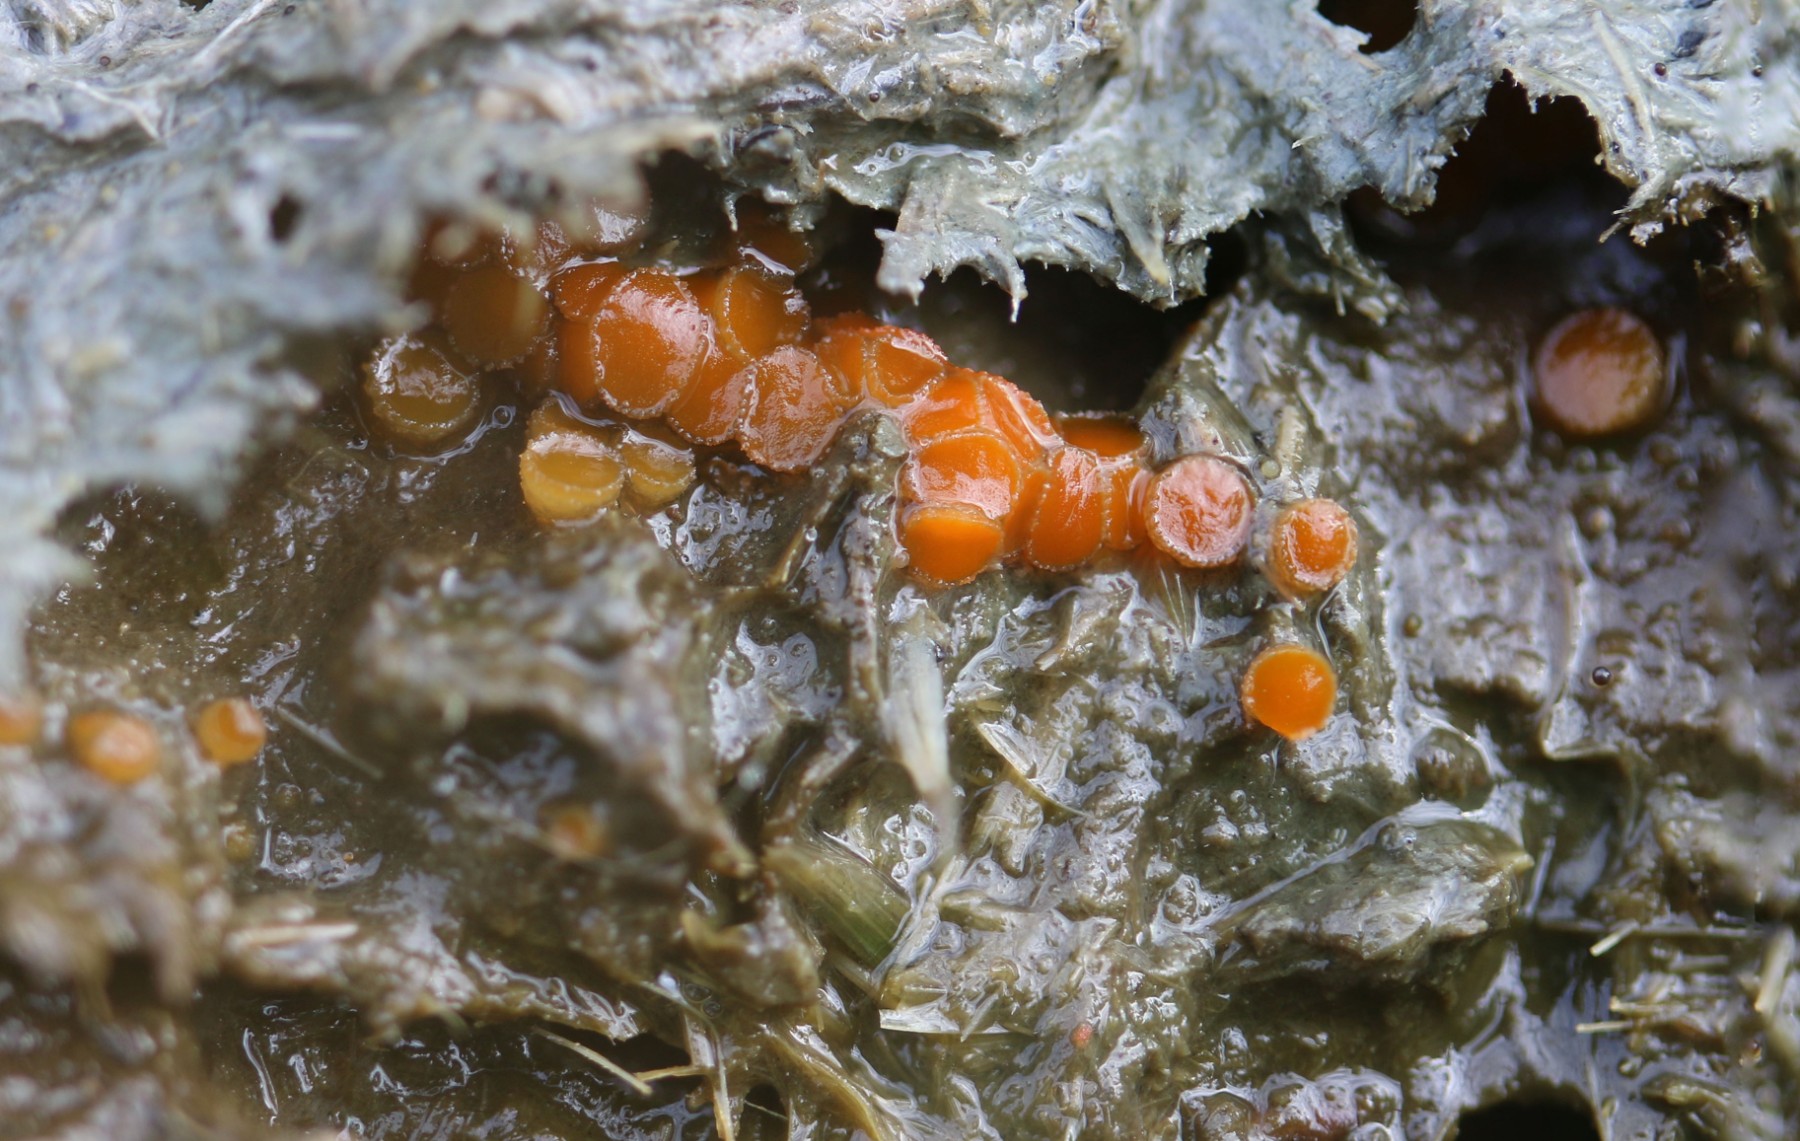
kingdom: Fungi
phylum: Ascomycota
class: Pezizomycetes
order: Pezizales
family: Pyronemataceae
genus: Cheilymenia
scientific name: Cheilymenia granulata
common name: møgbæger
